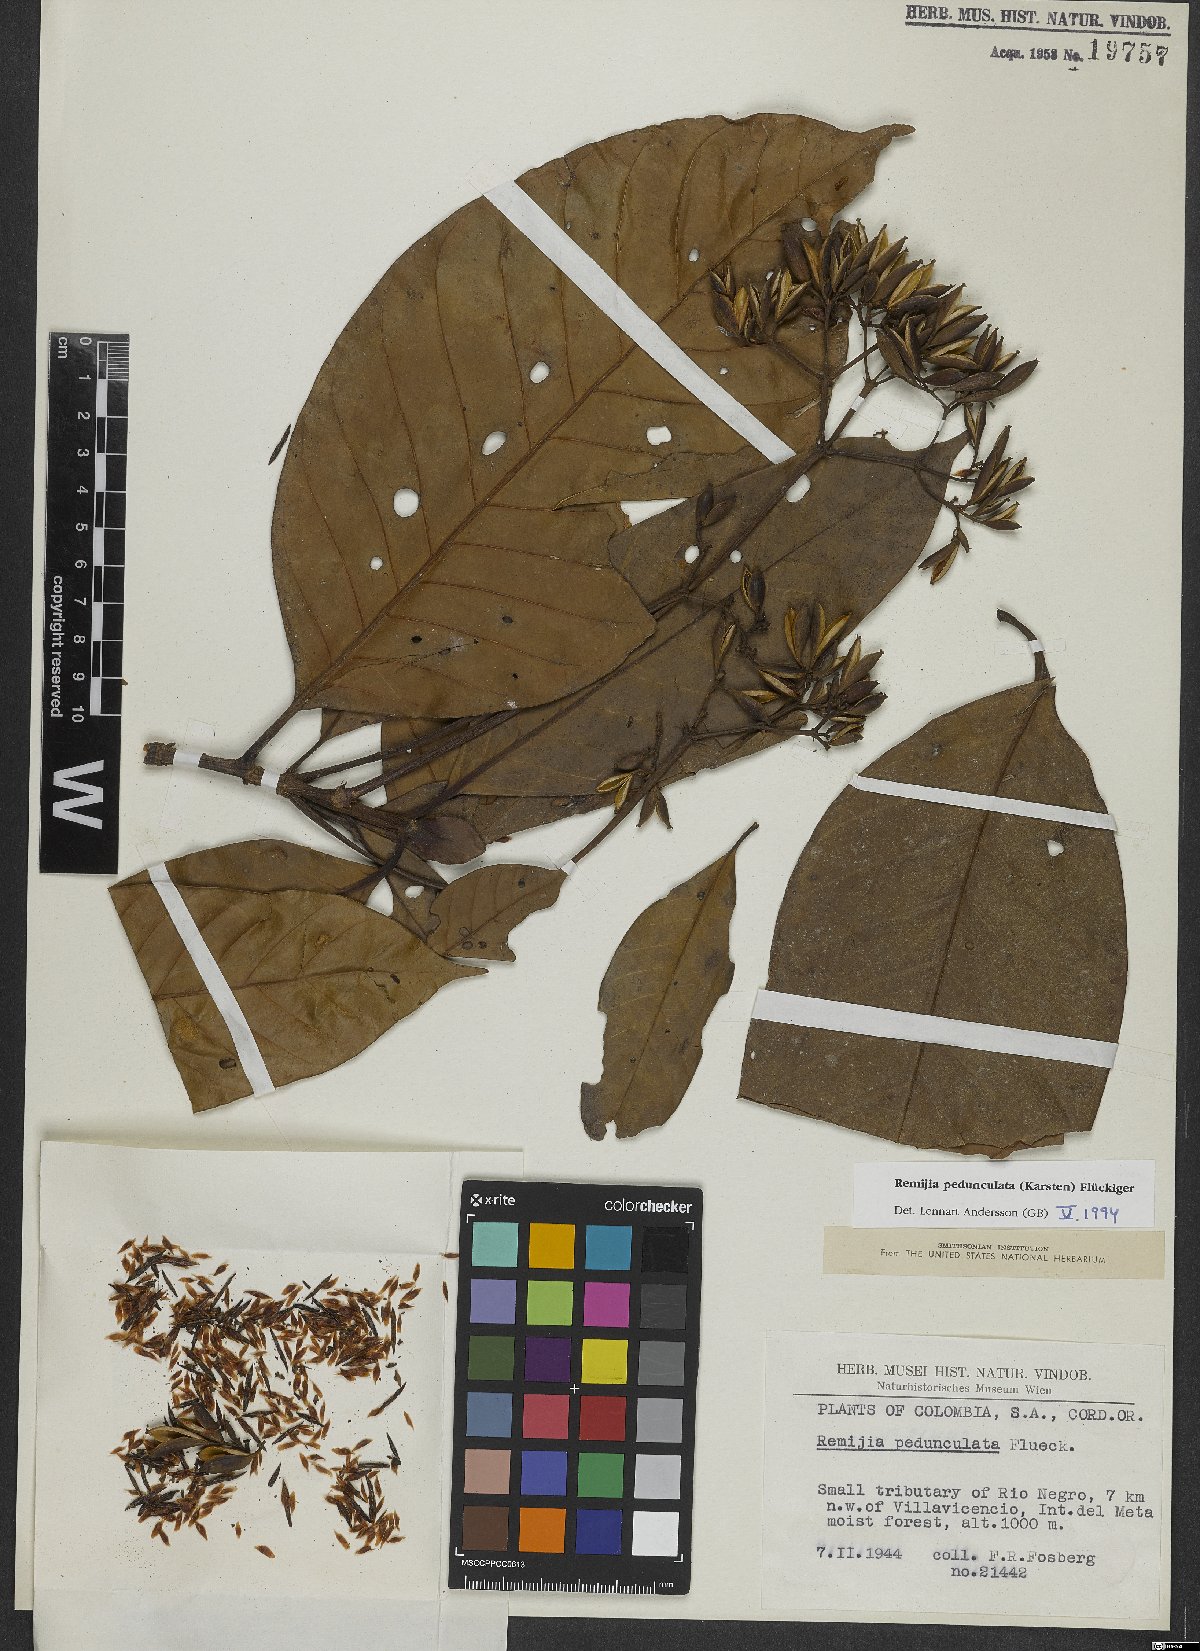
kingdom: Plantae
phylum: Tracheophyta
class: Magnoliopsida
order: Gentianales
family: Rubiaceae
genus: Ciliosemina
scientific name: Ciliosemina pedunculata
